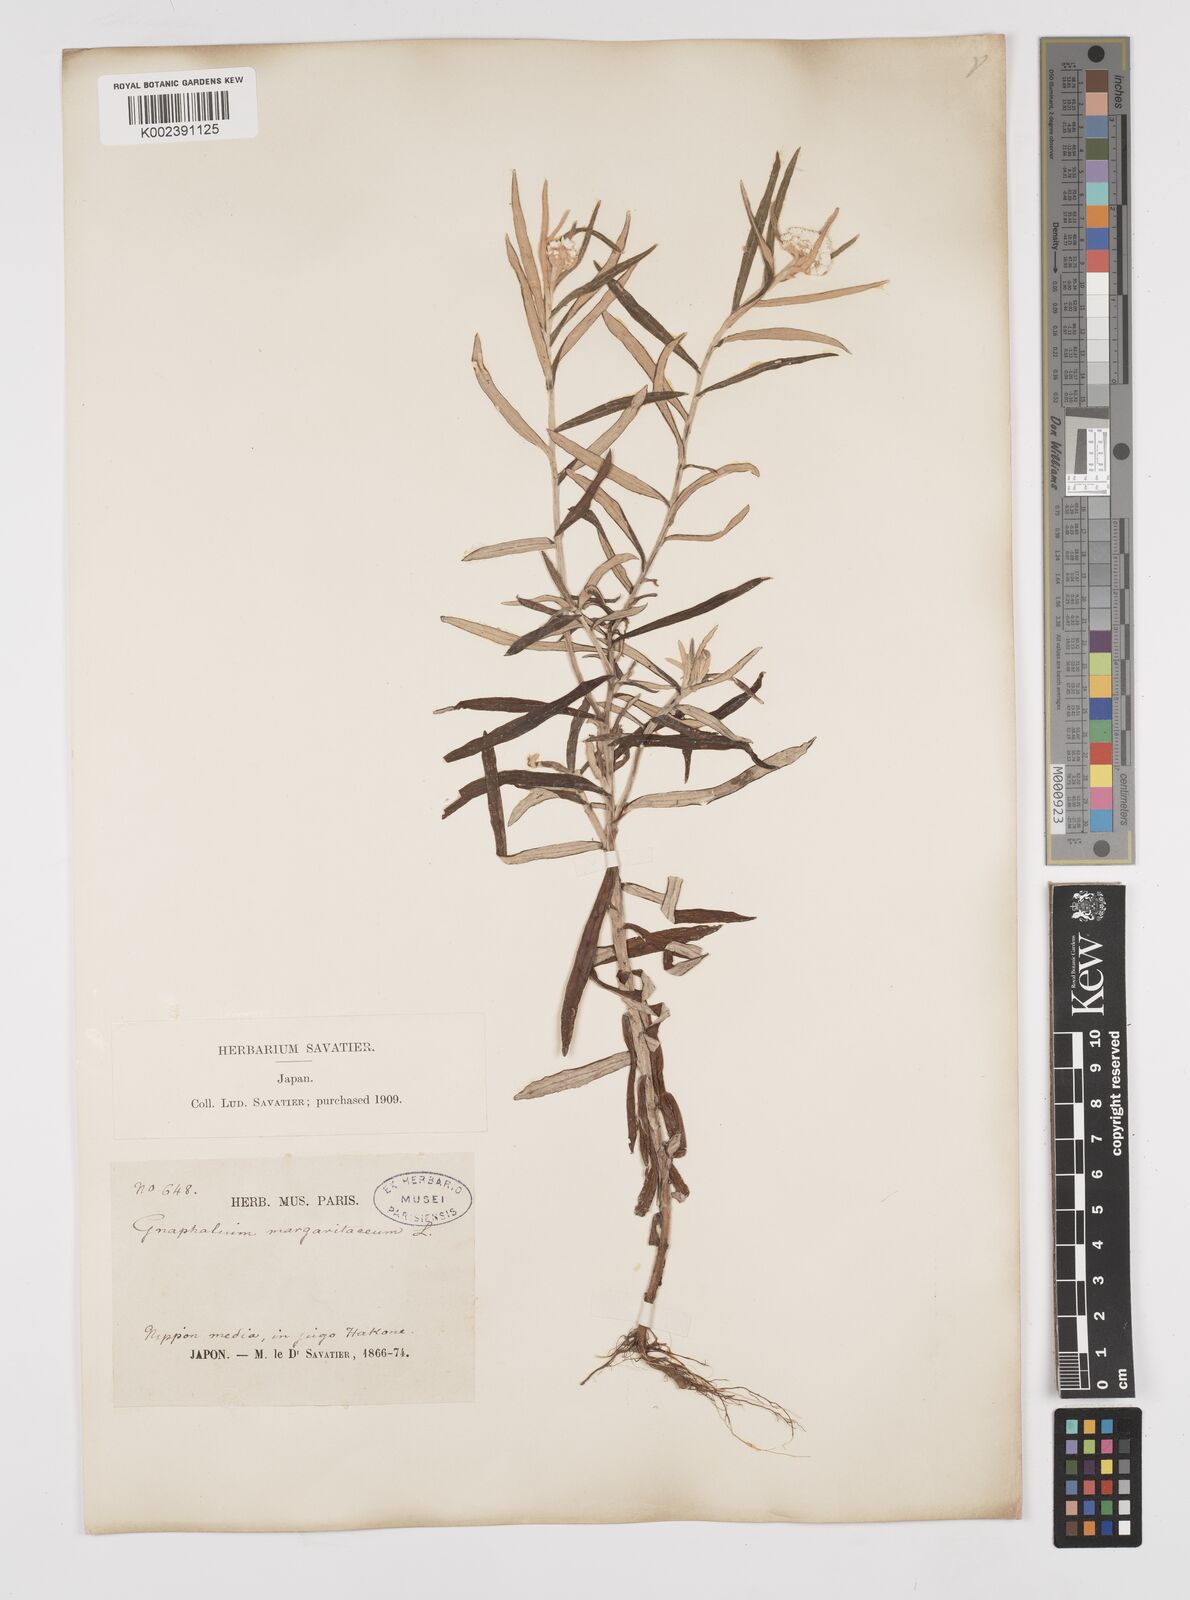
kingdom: Plantae
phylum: Tracheophyta
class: Magnoliopsida
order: Asterales
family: Asteraceae
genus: Anaphalis
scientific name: Anaphalis margaritacea
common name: Pearly everlasting
